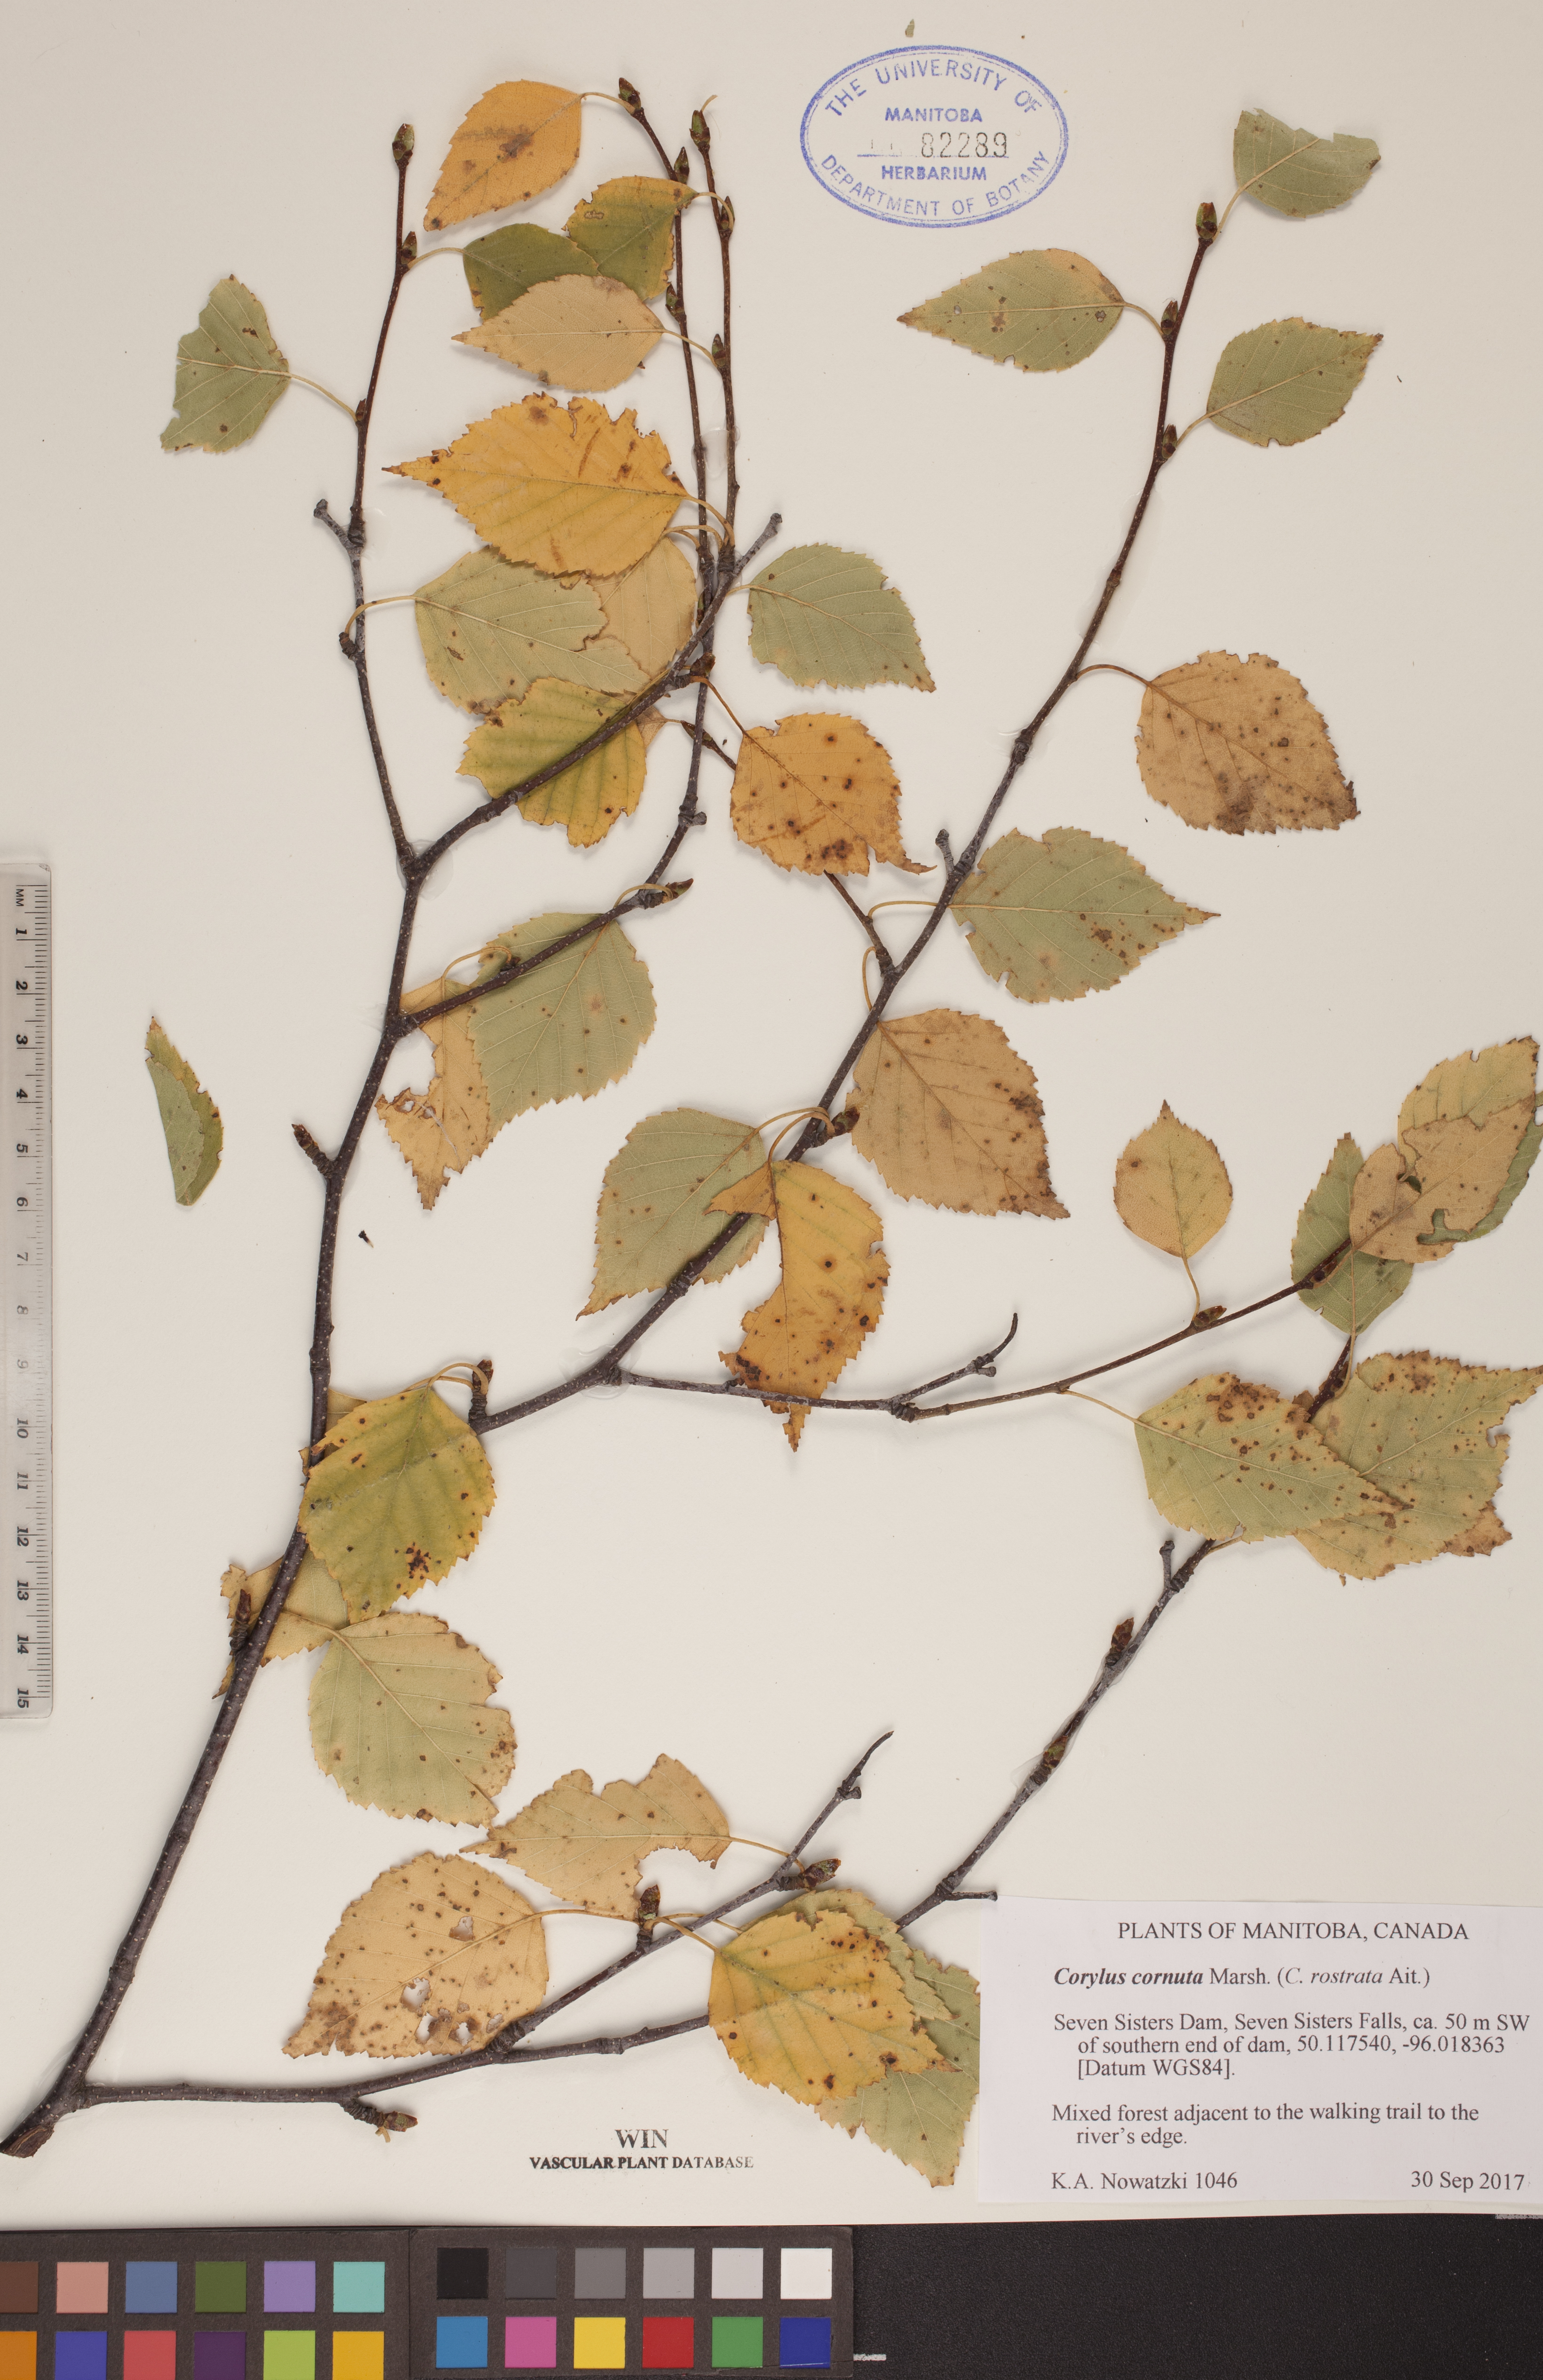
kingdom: Plantae
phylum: Tracheophyta
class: Magnoliopsida
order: Fagales
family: Betulaceae
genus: Corylus
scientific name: Corylus cornuta
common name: Beaked hazel
